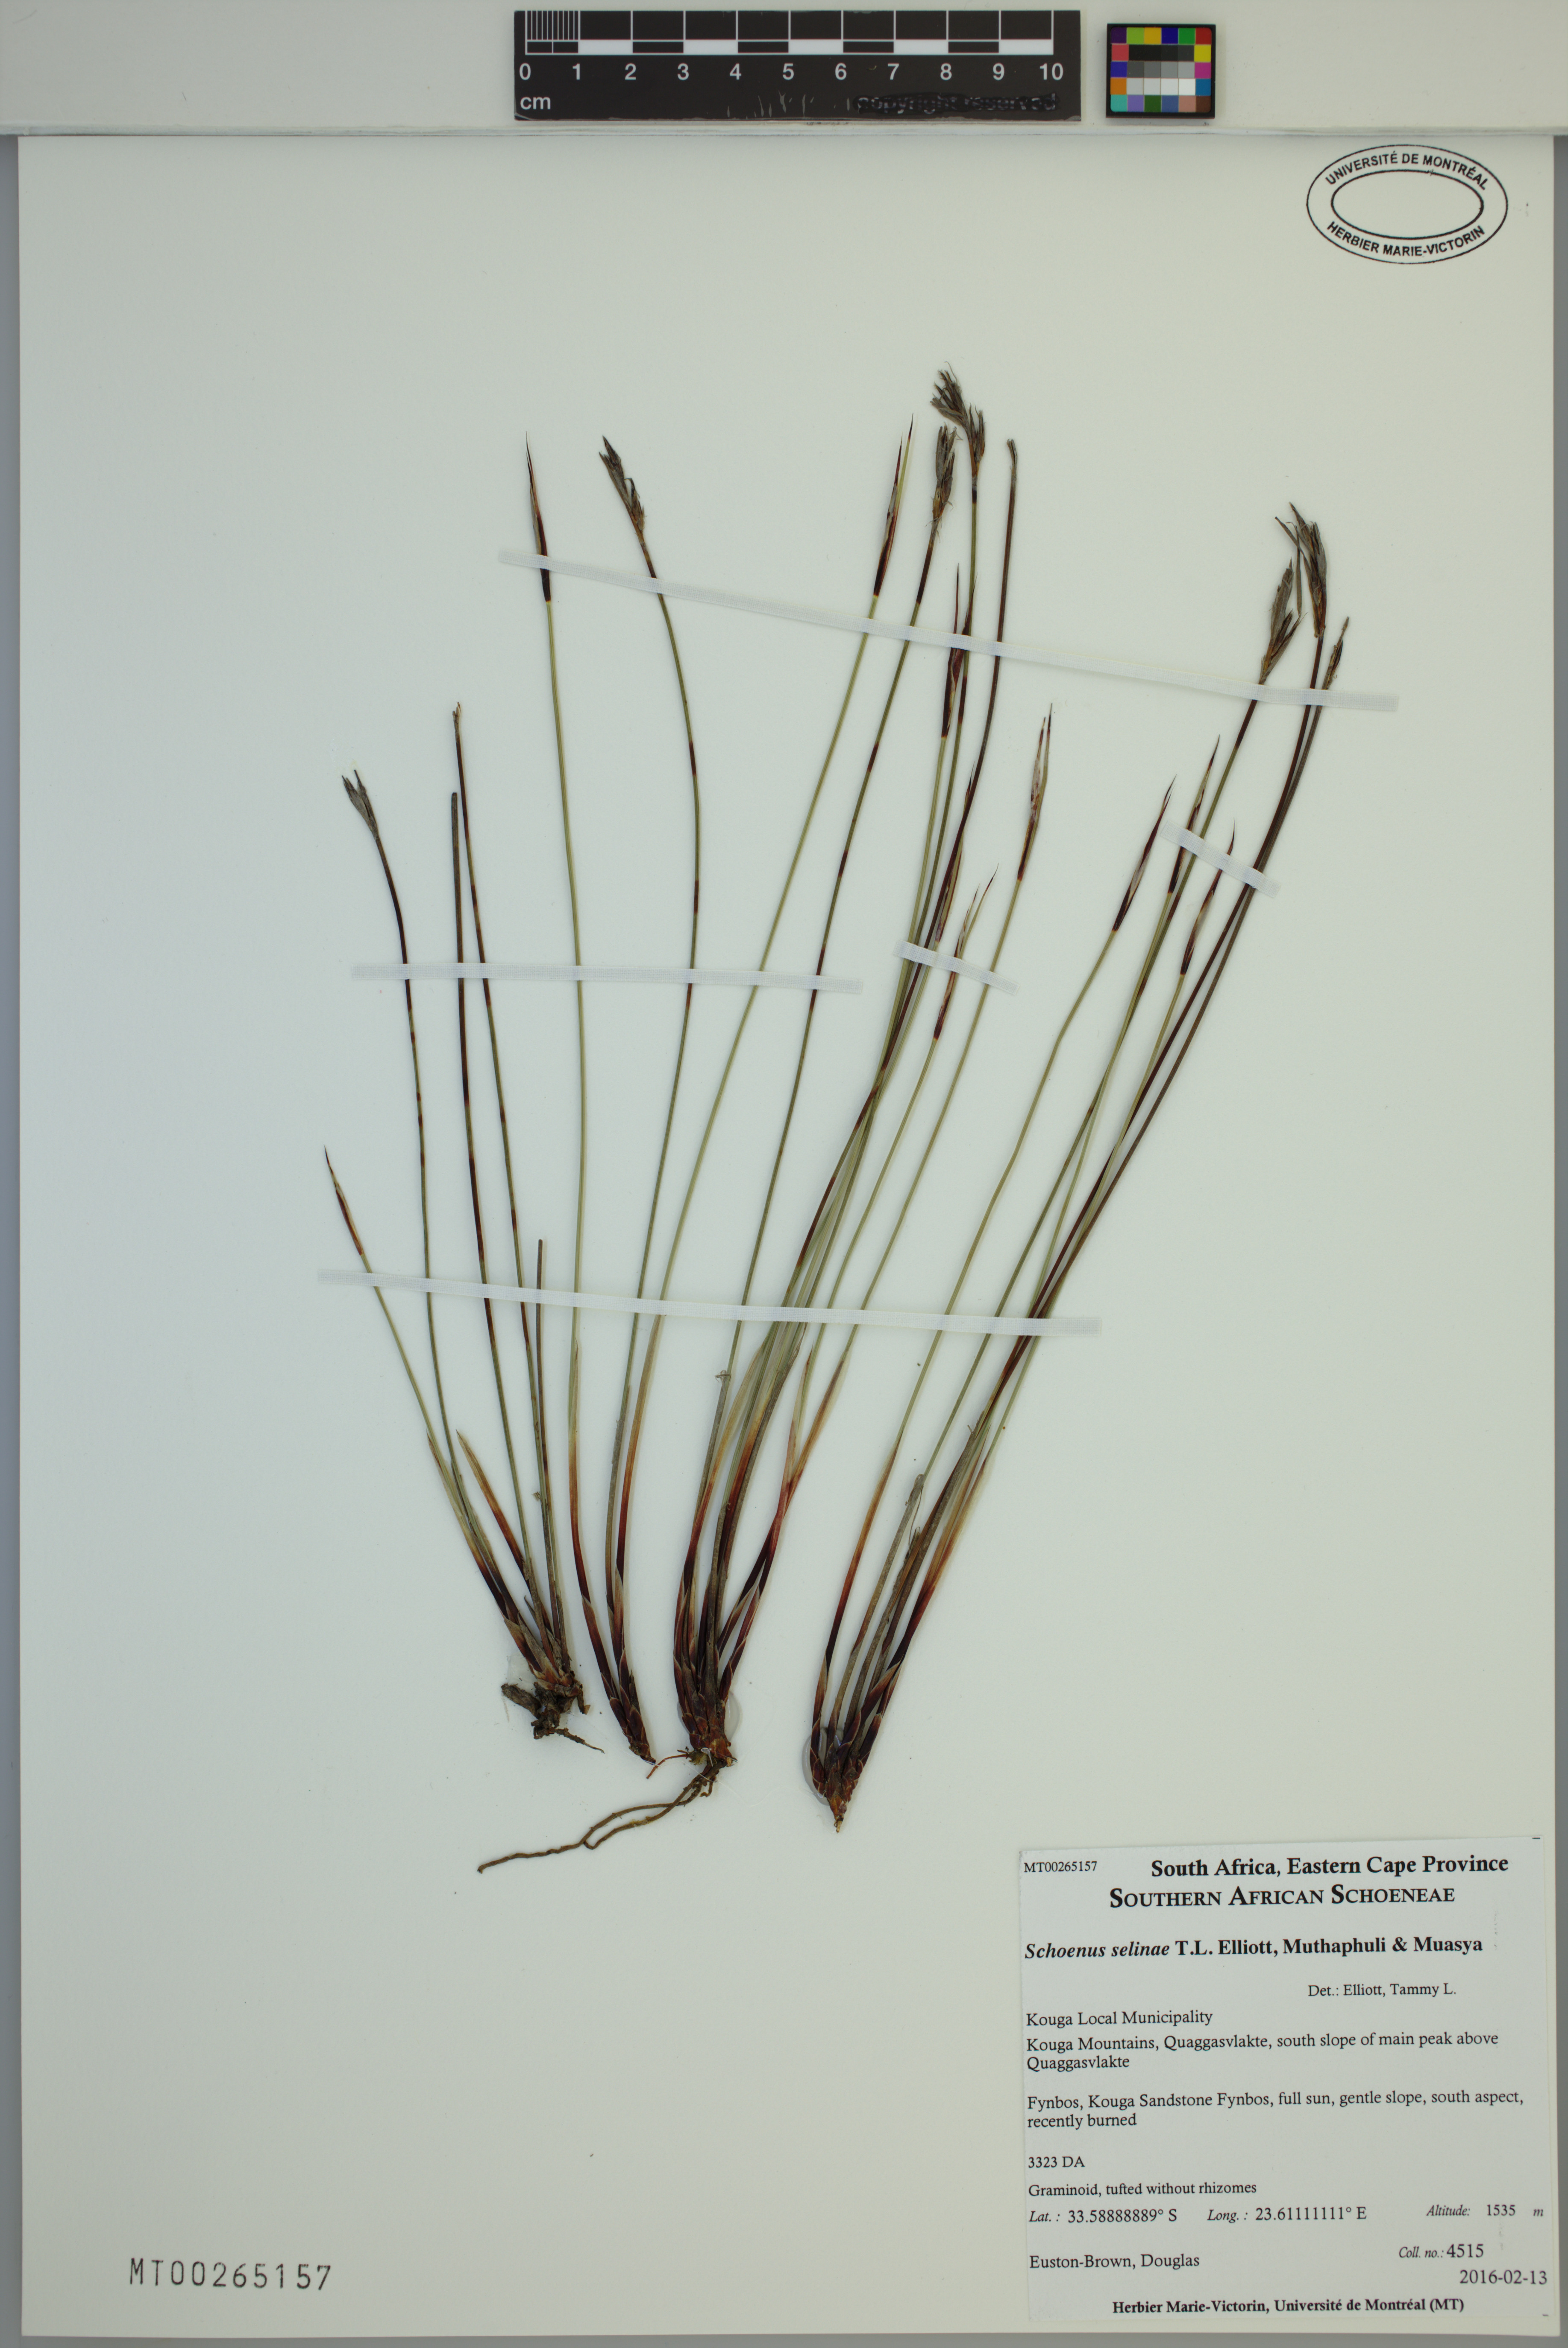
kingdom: Plantae
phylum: Tracheophyta
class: Liliopsida
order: Poales
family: Cyperaceae
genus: Schoenus
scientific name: Schoenus selinae
